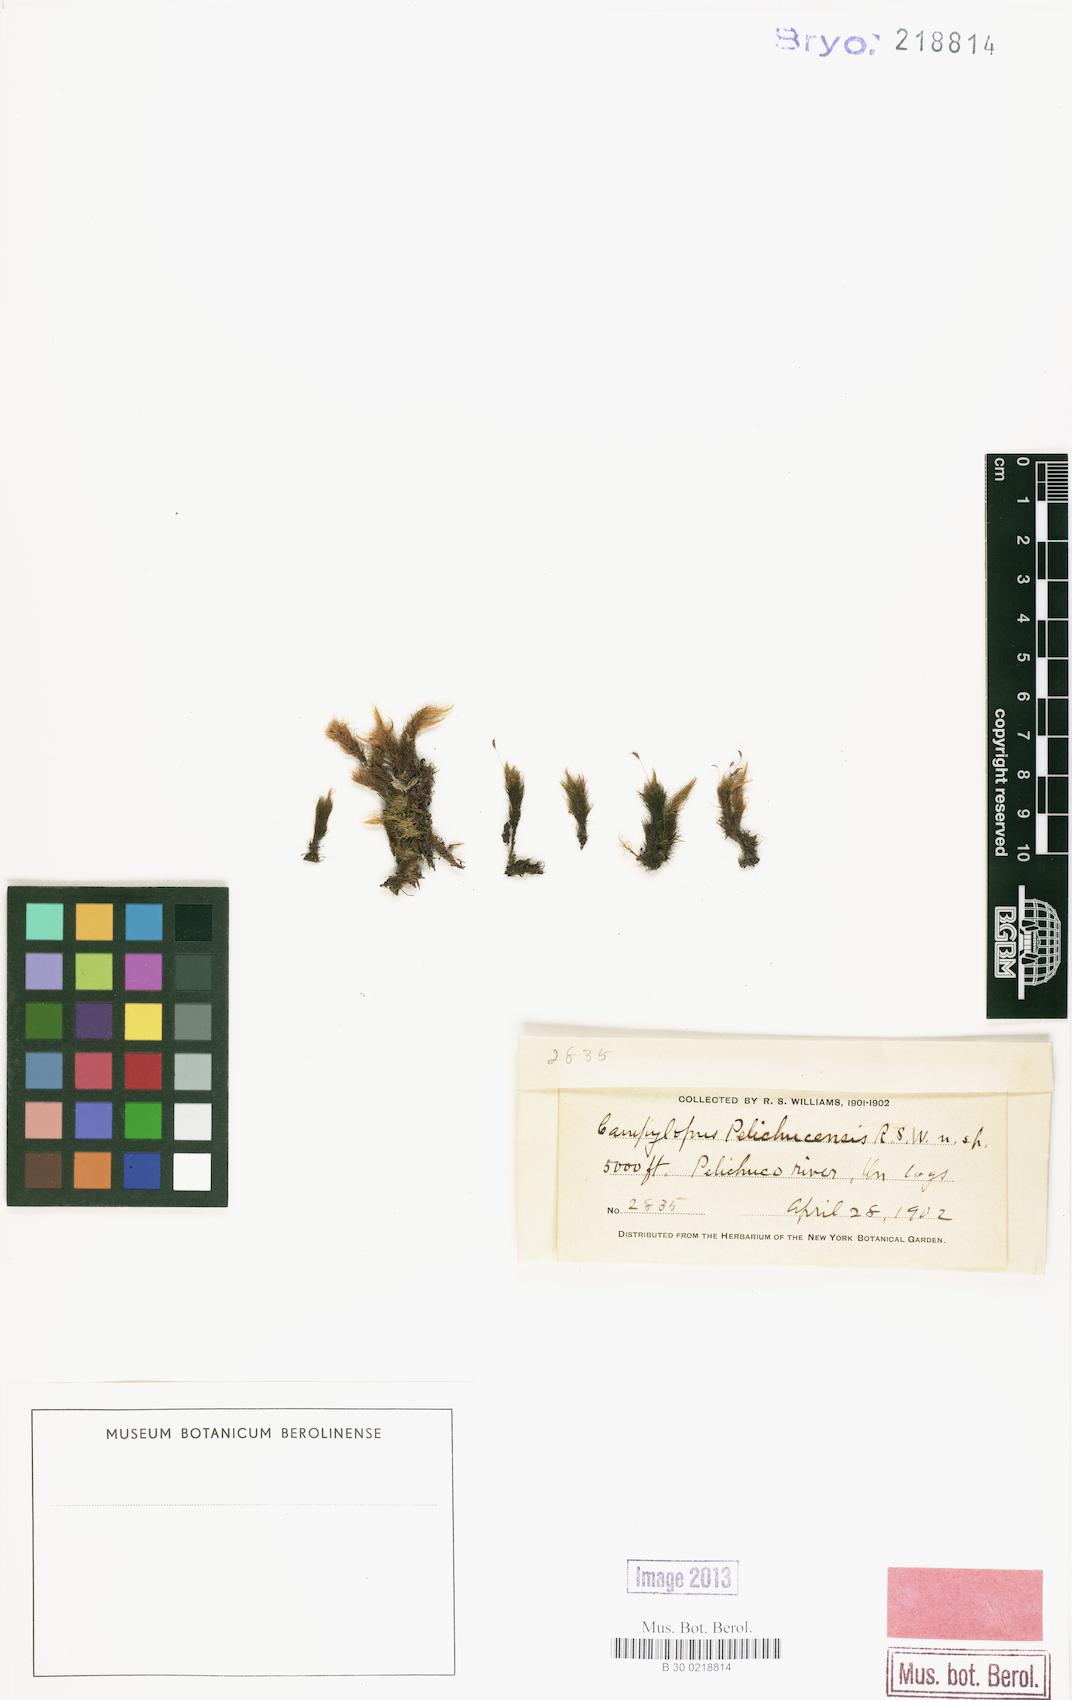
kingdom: Plantae
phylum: Bryophyta
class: Bryopsida
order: Dicranales
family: Leucobryaceae
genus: Campylopus
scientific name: Campylopus arctocarpus
